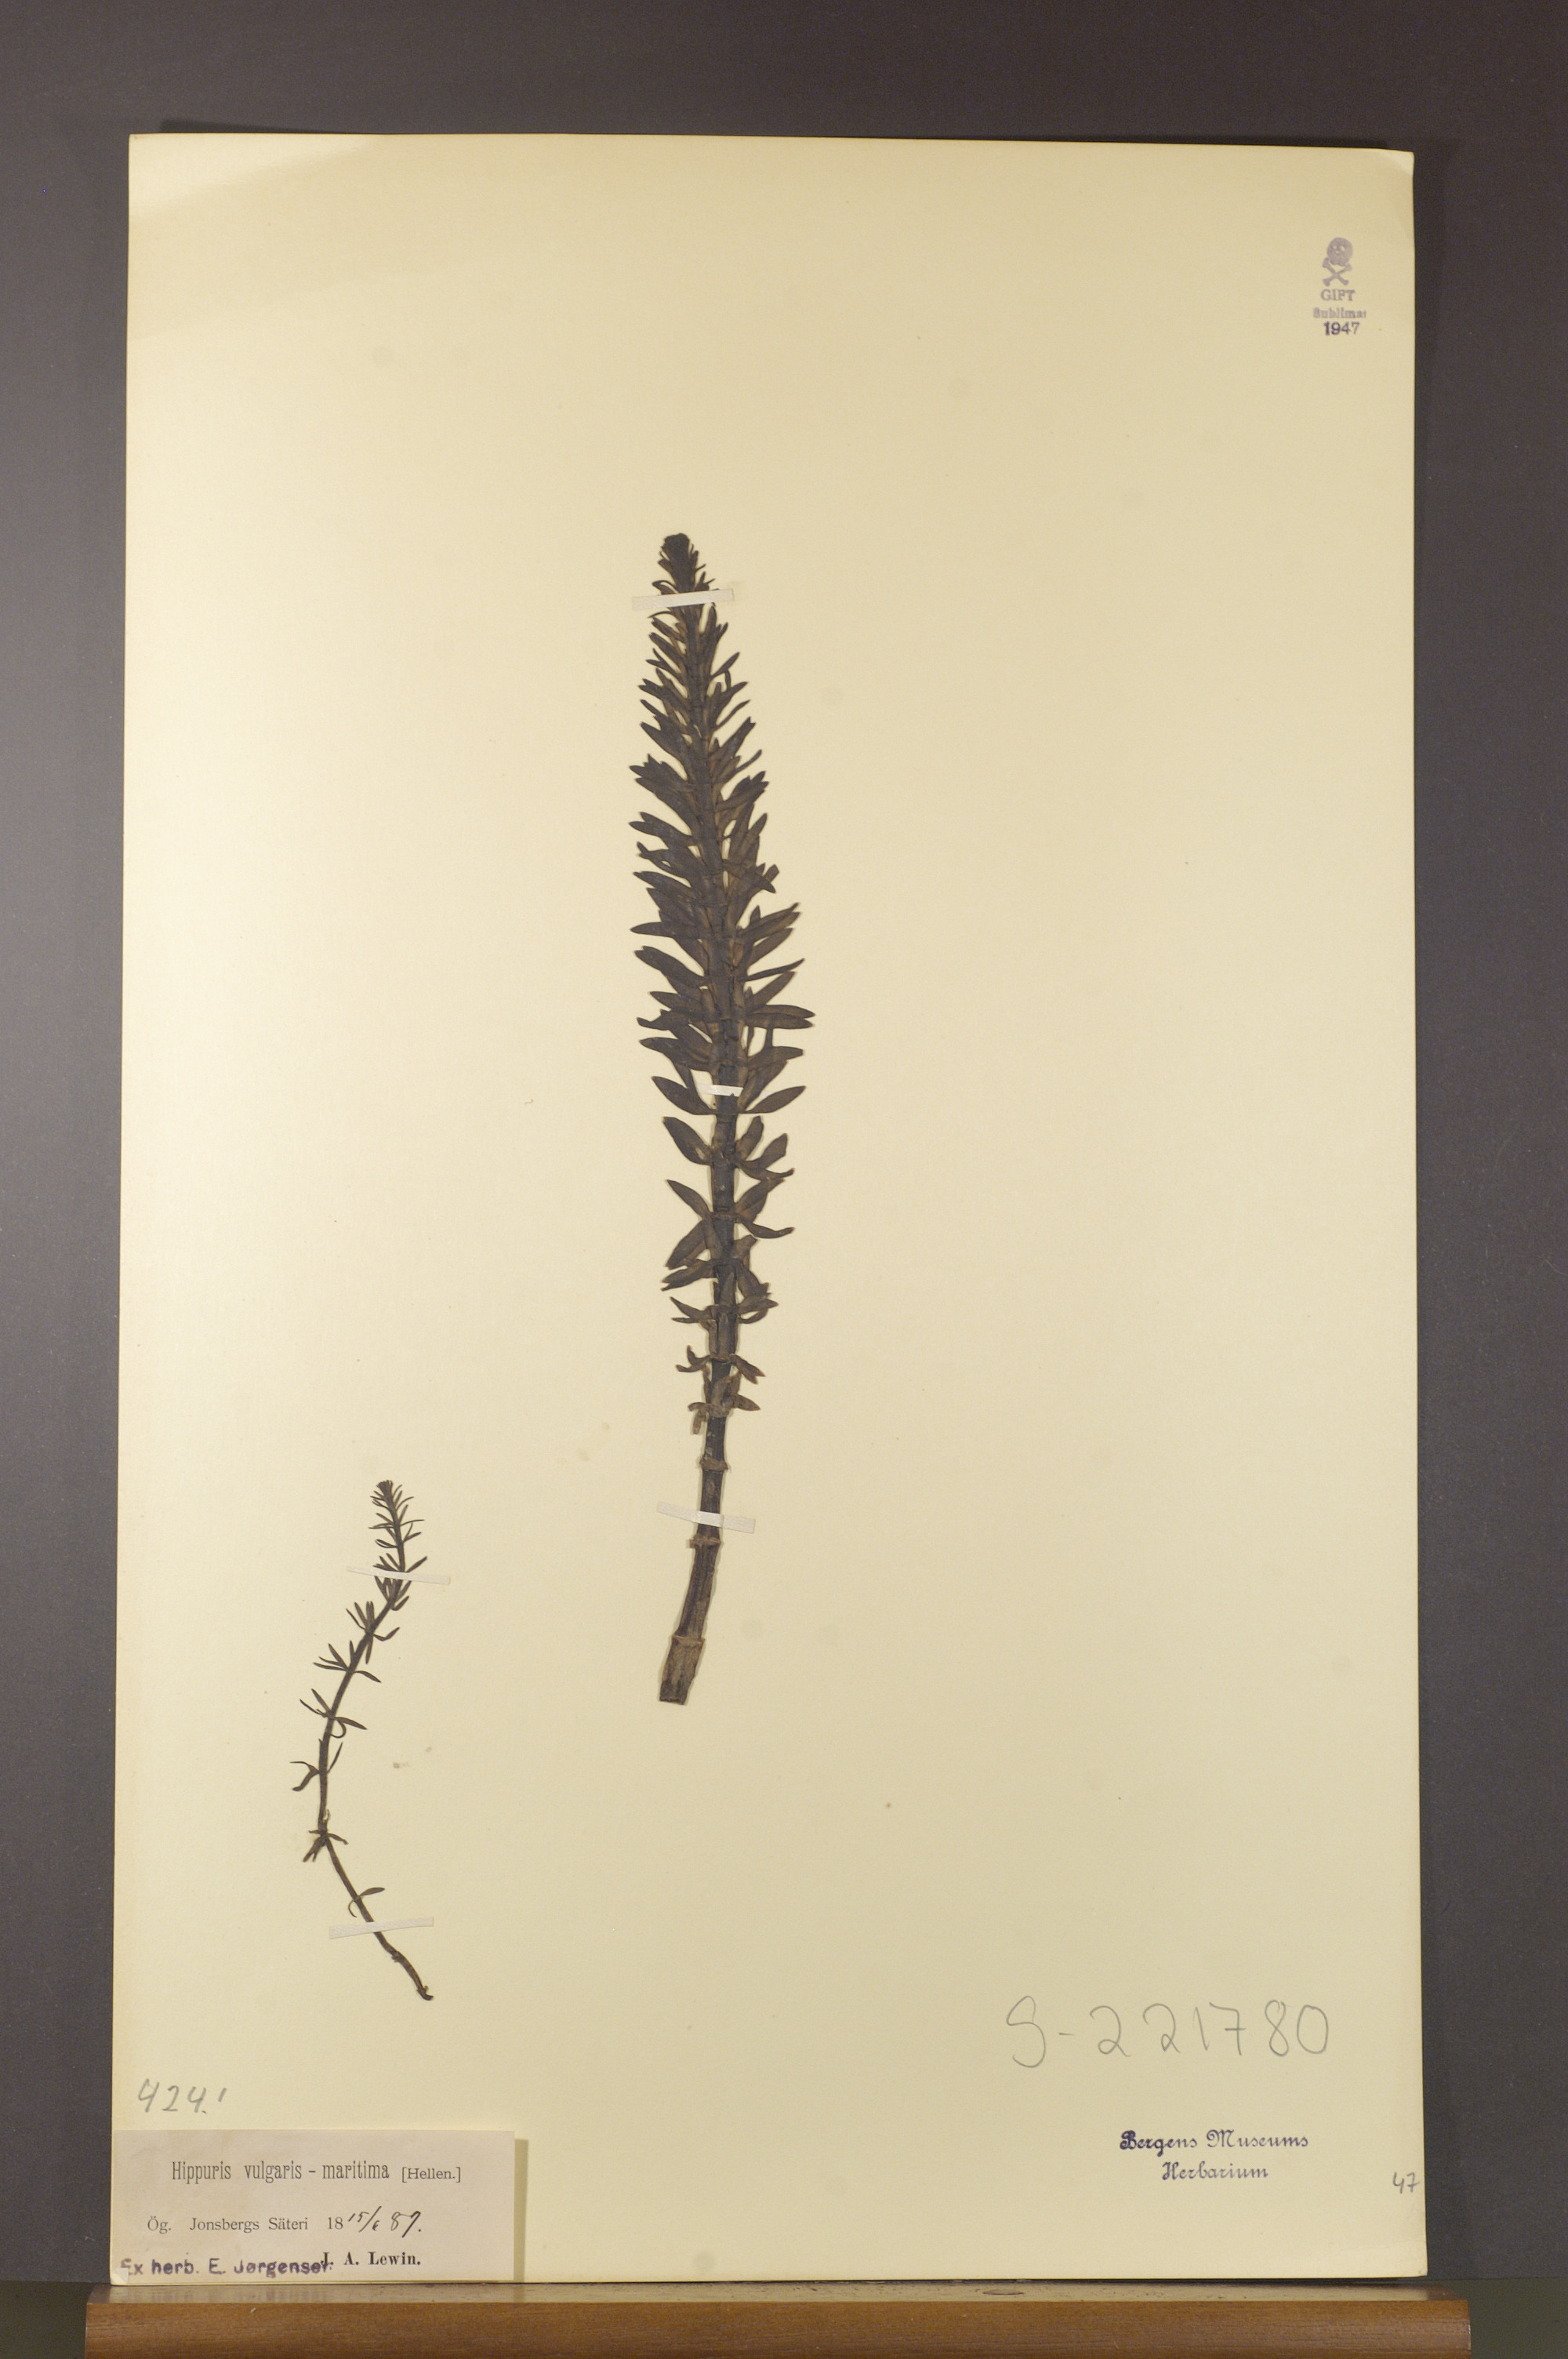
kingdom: Plantae
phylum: Tracheophyta
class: Magnoliopsida
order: Lamiales
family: Plantaginaceae
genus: Hippuris
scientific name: Hippuris lanceolata
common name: Lance-leaved mare's-tail
